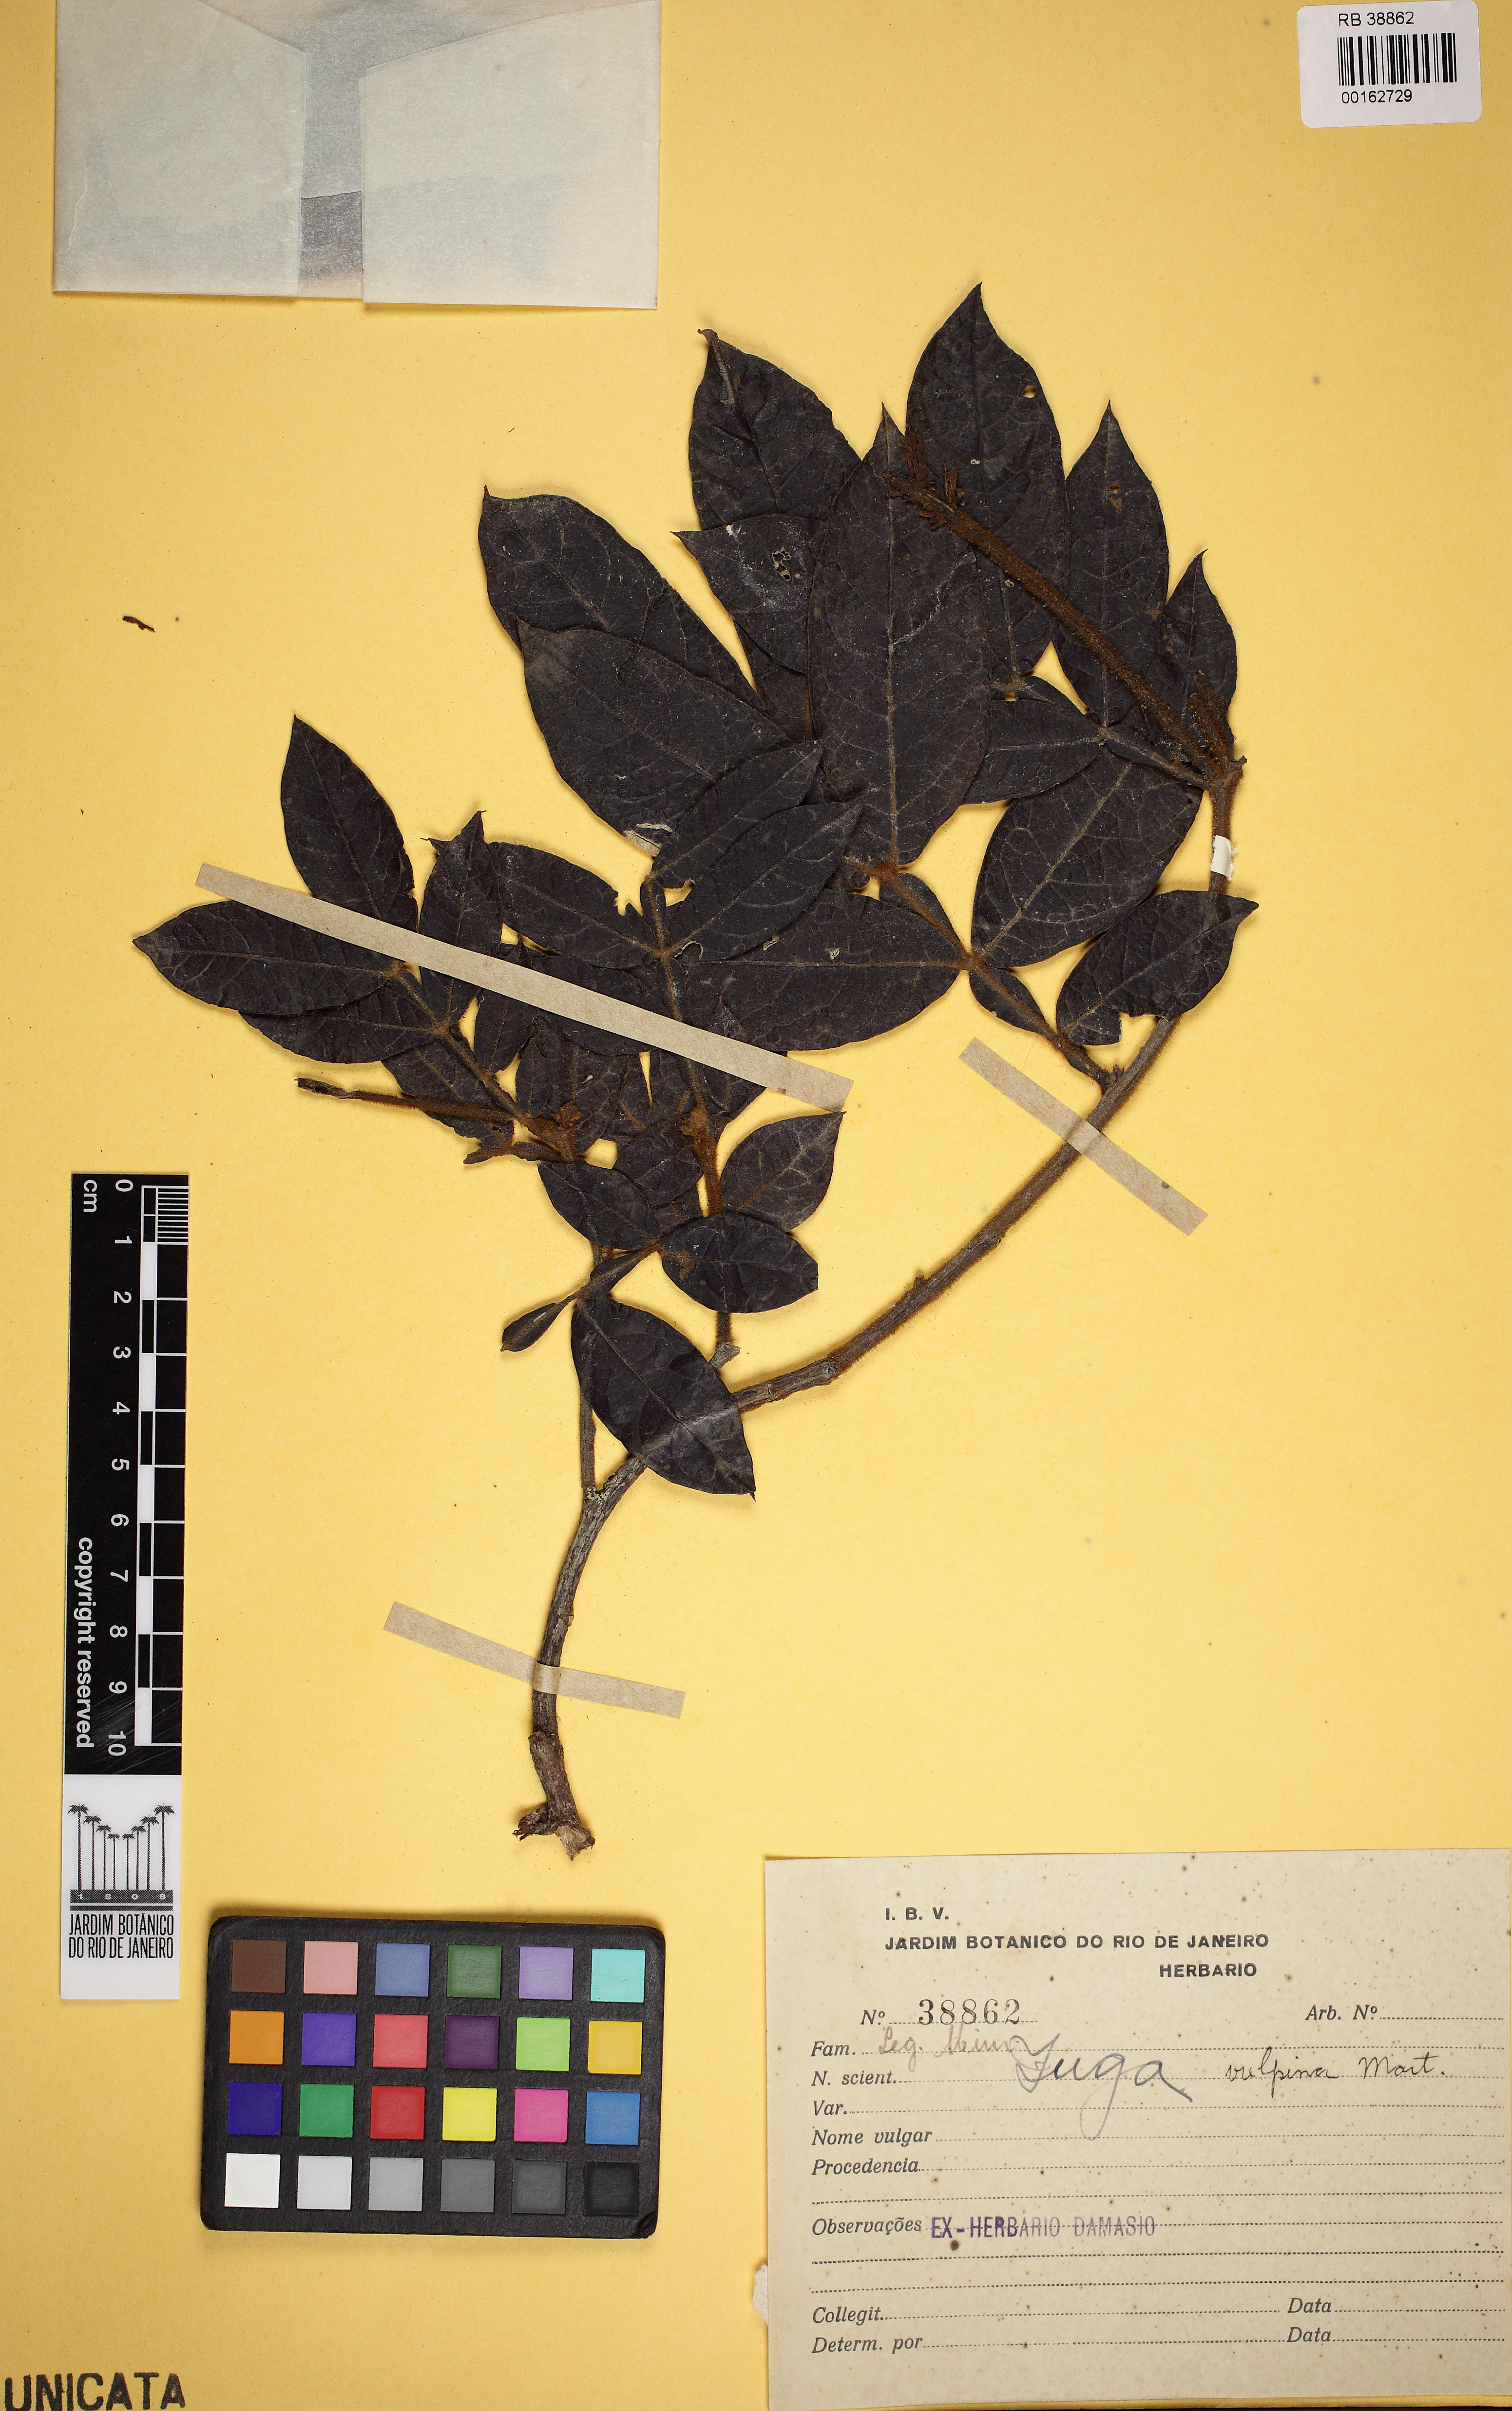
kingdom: Plantae
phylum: Tracheophyta
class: Magnoliopsida
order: Fabales
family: Fabaceae
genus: Inga
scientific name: Inga vulpina
